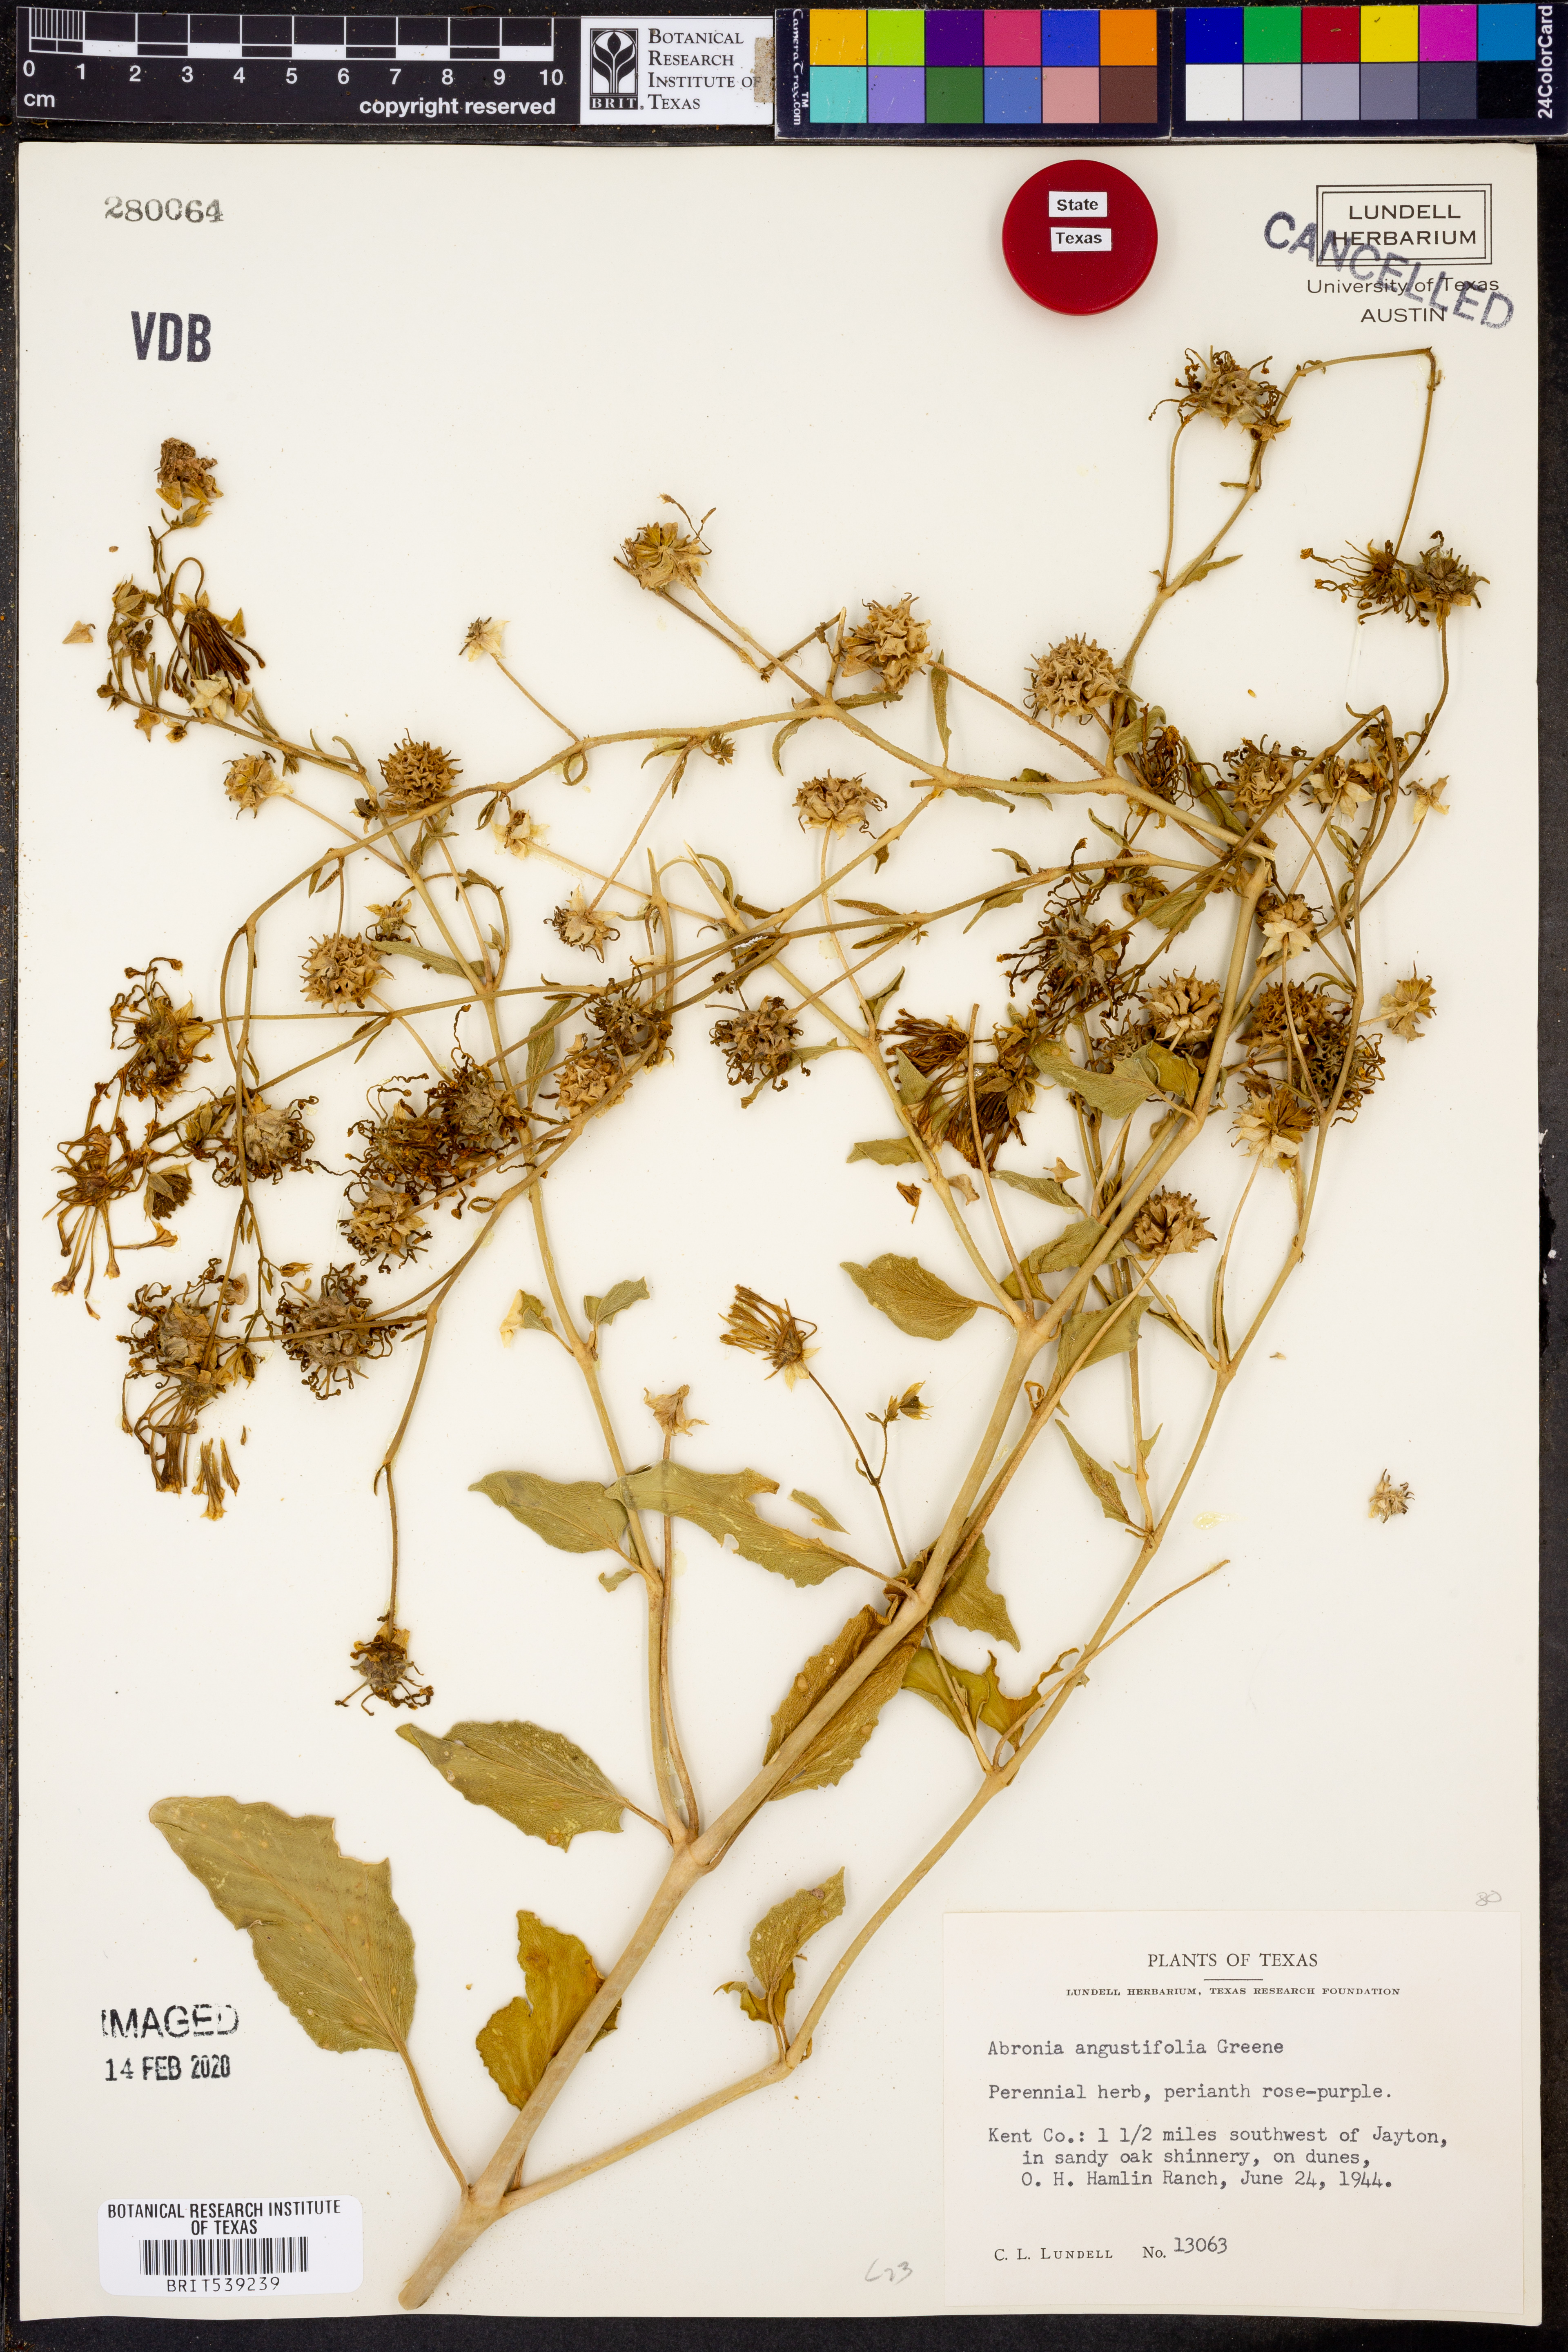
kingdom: Plantae
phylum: Tracheophyta
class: Magnoliopsida
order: Caryophyllales
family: Nyctaginaceae
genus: Abronia
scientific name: Abronia angustifolia
